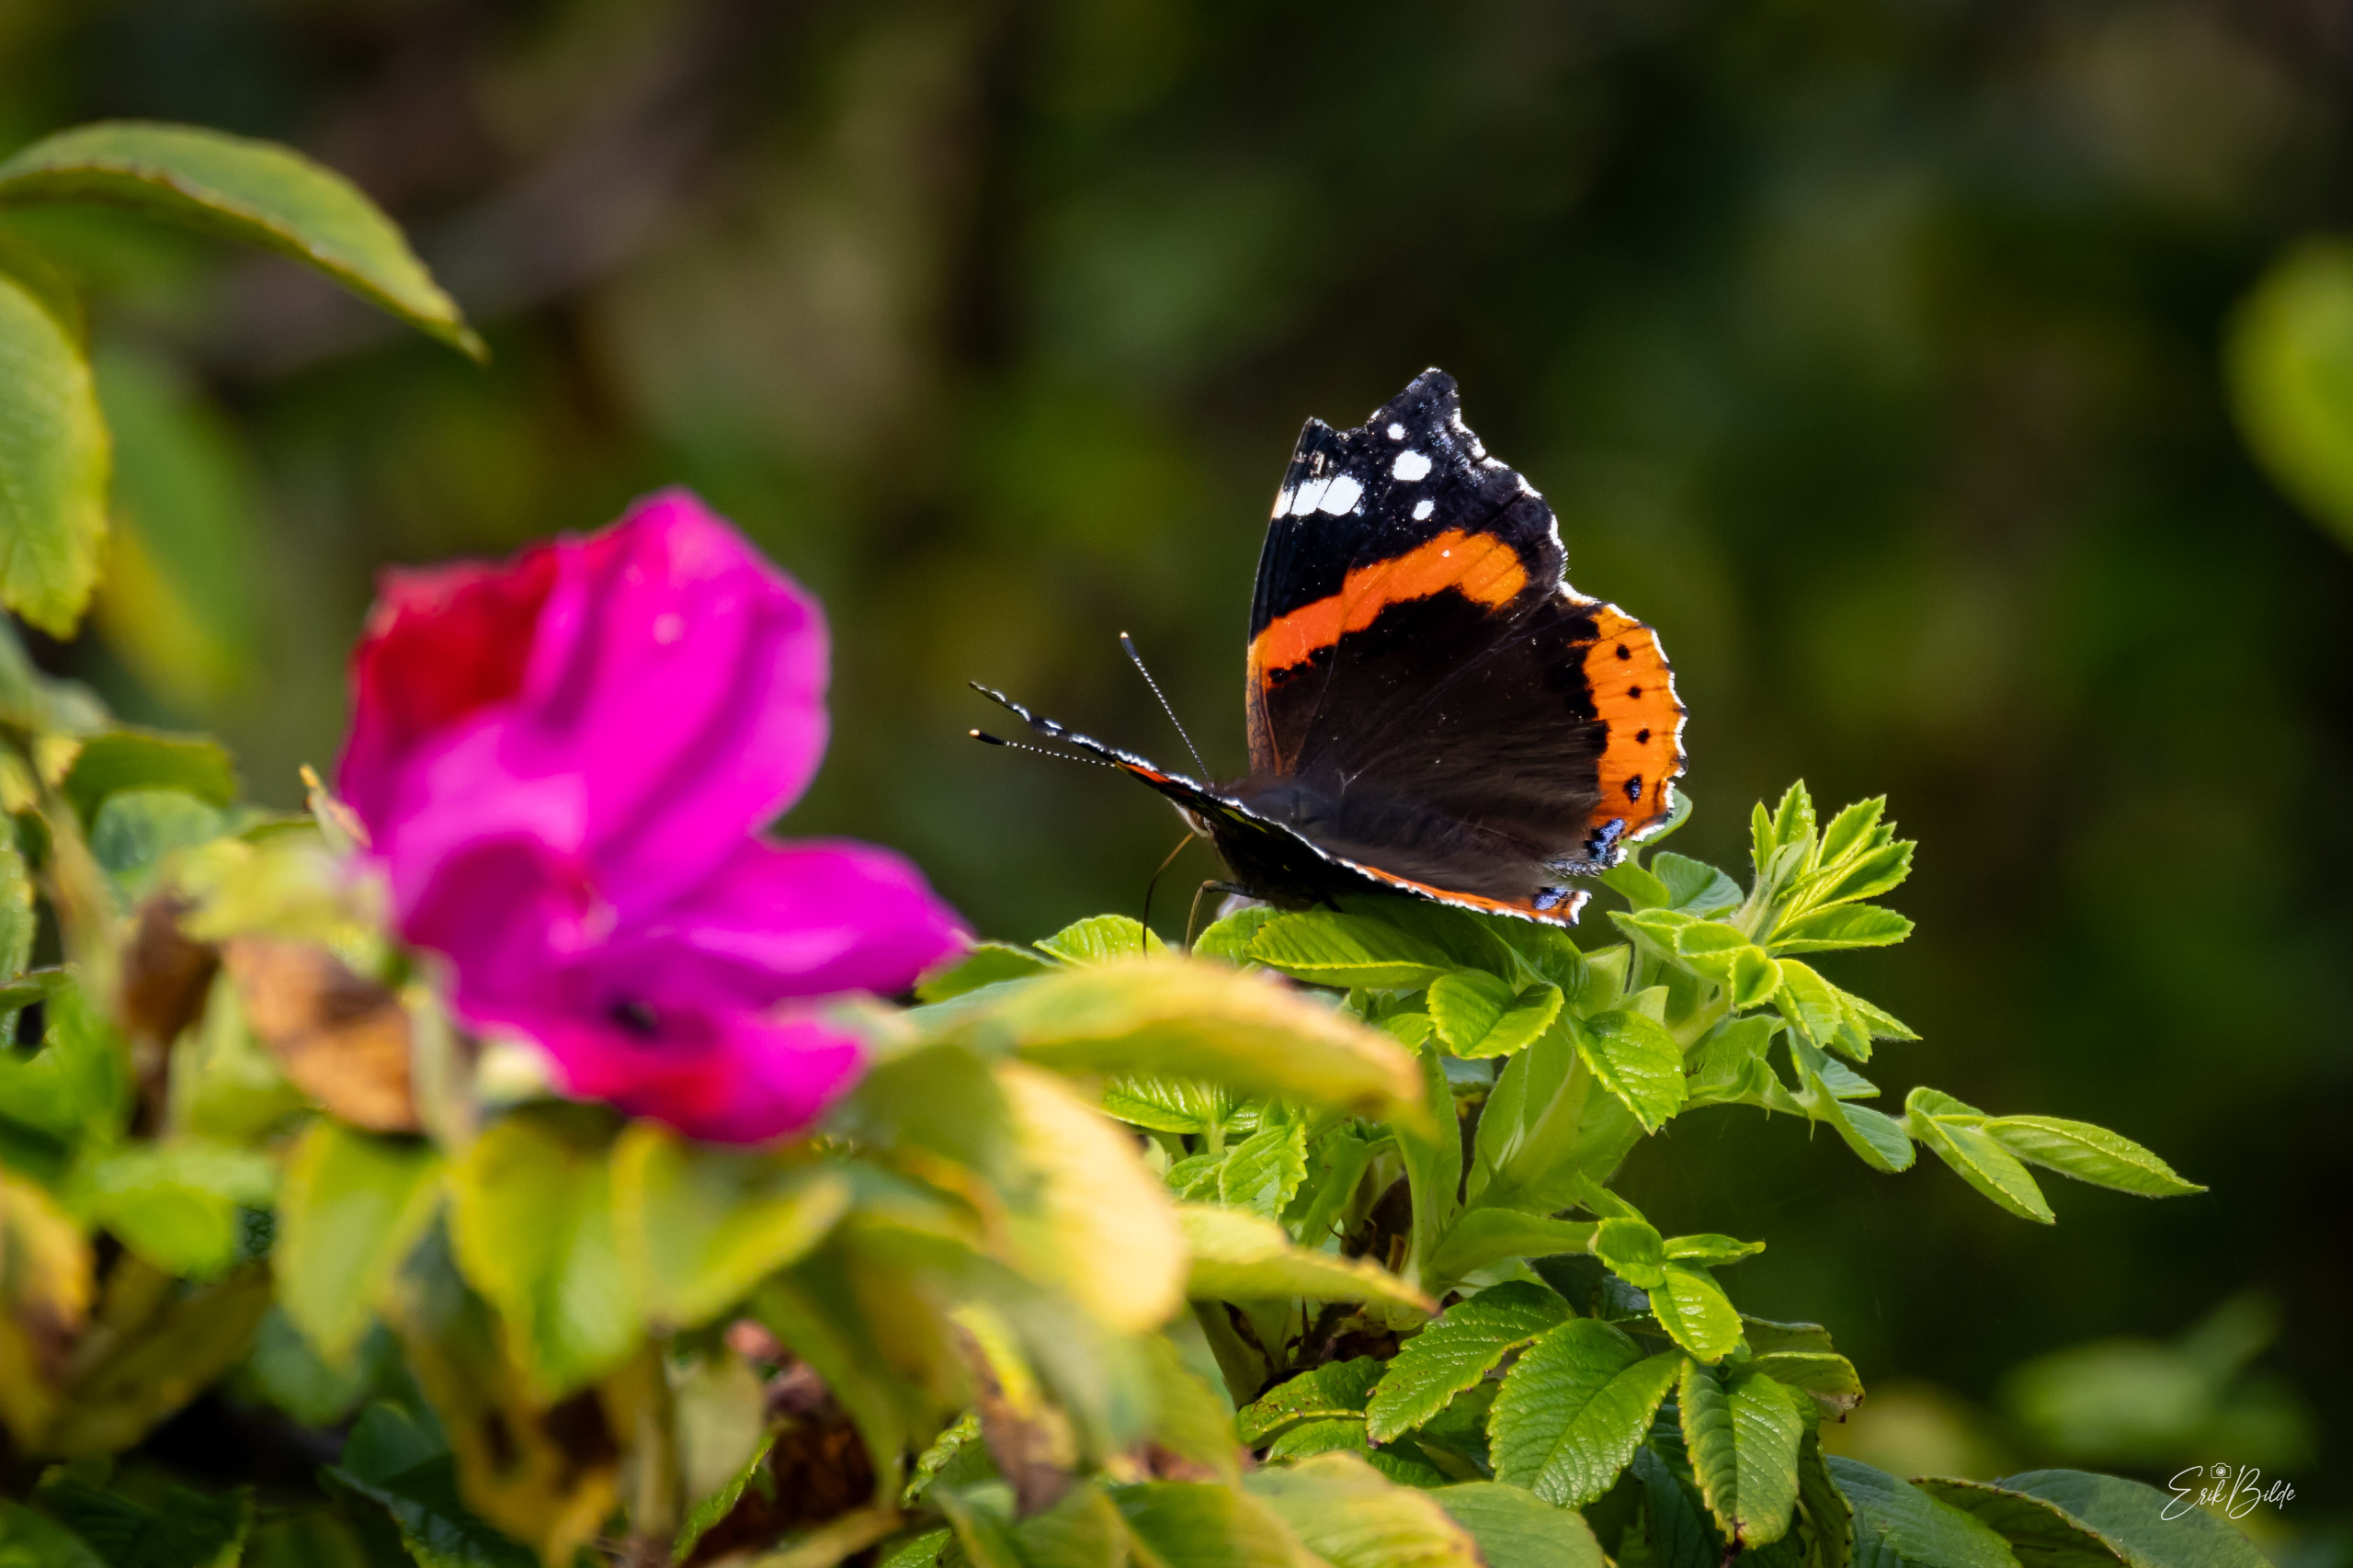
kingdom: Animalia
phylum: Arthropoda
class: Insecta
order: Lepidoptera
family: Nymphalidae
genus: Vanessa
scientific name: Vanessa atalanta
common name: Admiral
